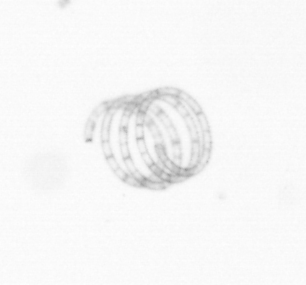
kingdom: Chromista
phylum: Ochrophyta
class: Bacillariophyceae
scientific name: Bacillariophyceae
